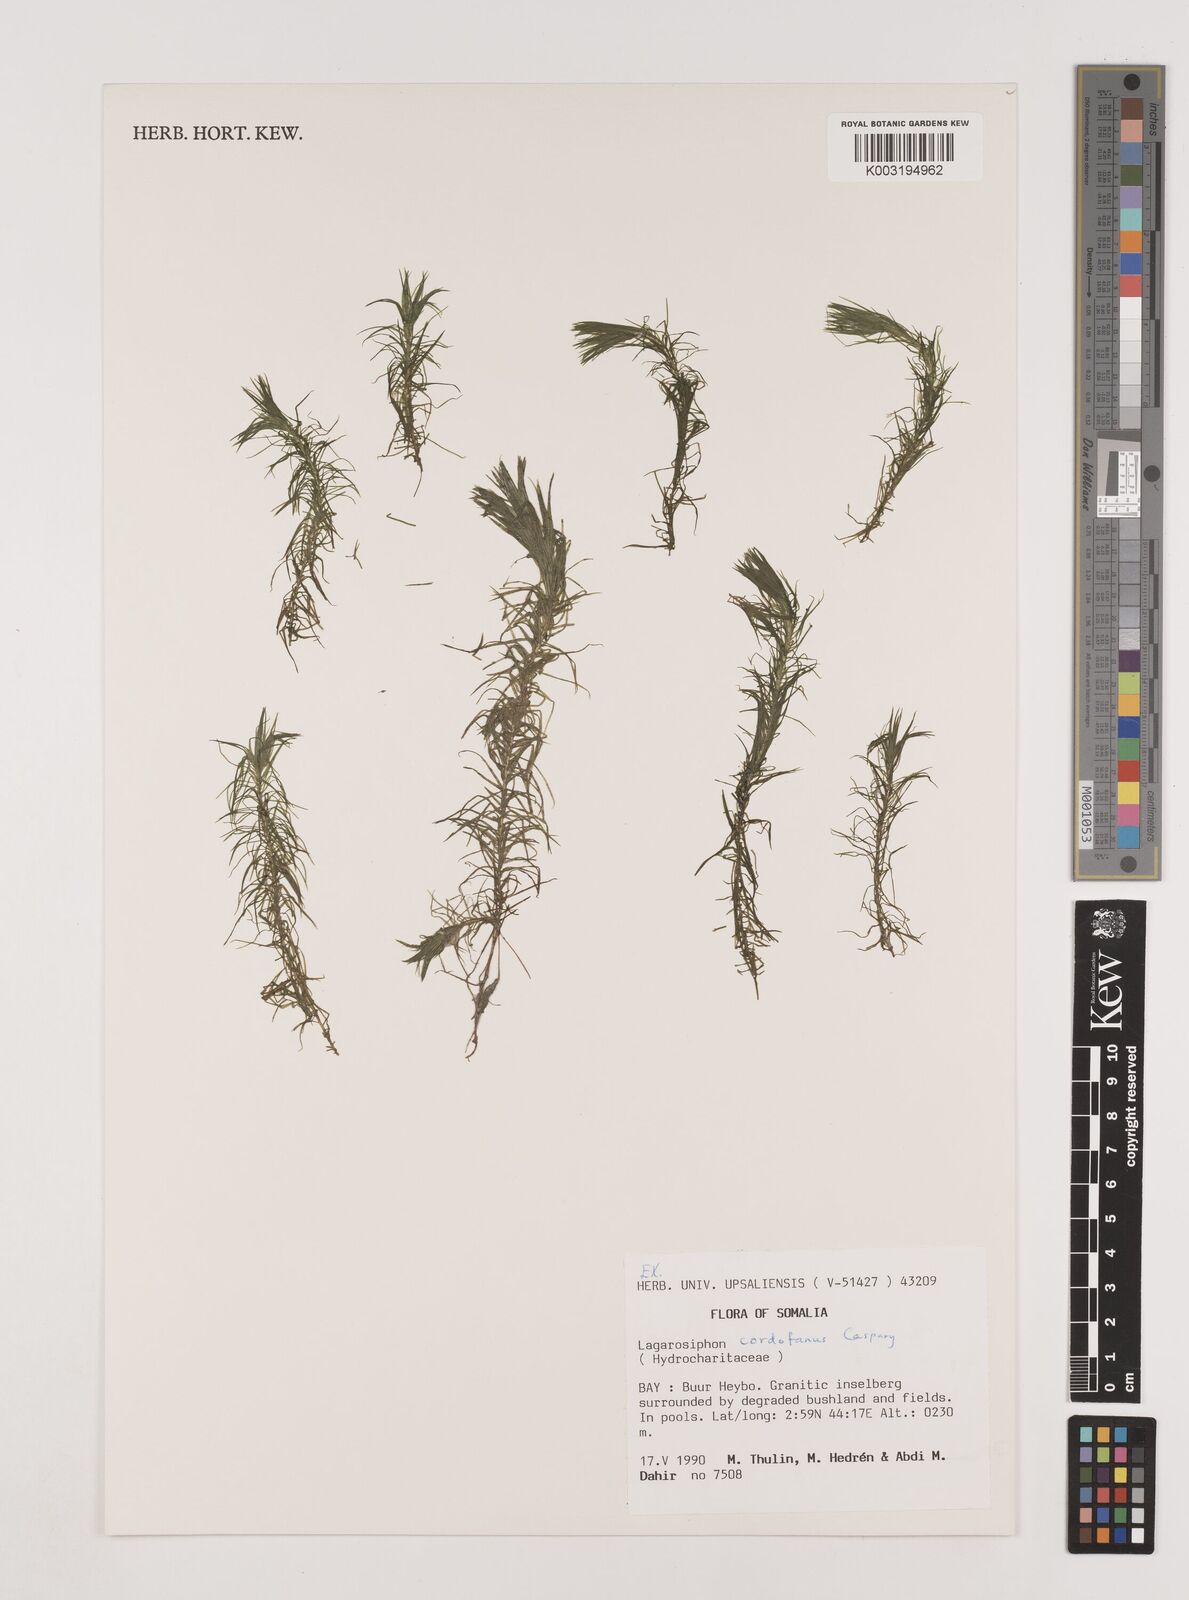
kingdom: Plantae
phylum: Tracheophyta
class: Liliopsida
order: Alismatales
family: Hydrocharitaceae
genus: Lagarosiphon
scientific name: Lagarosiphon cordofanus
